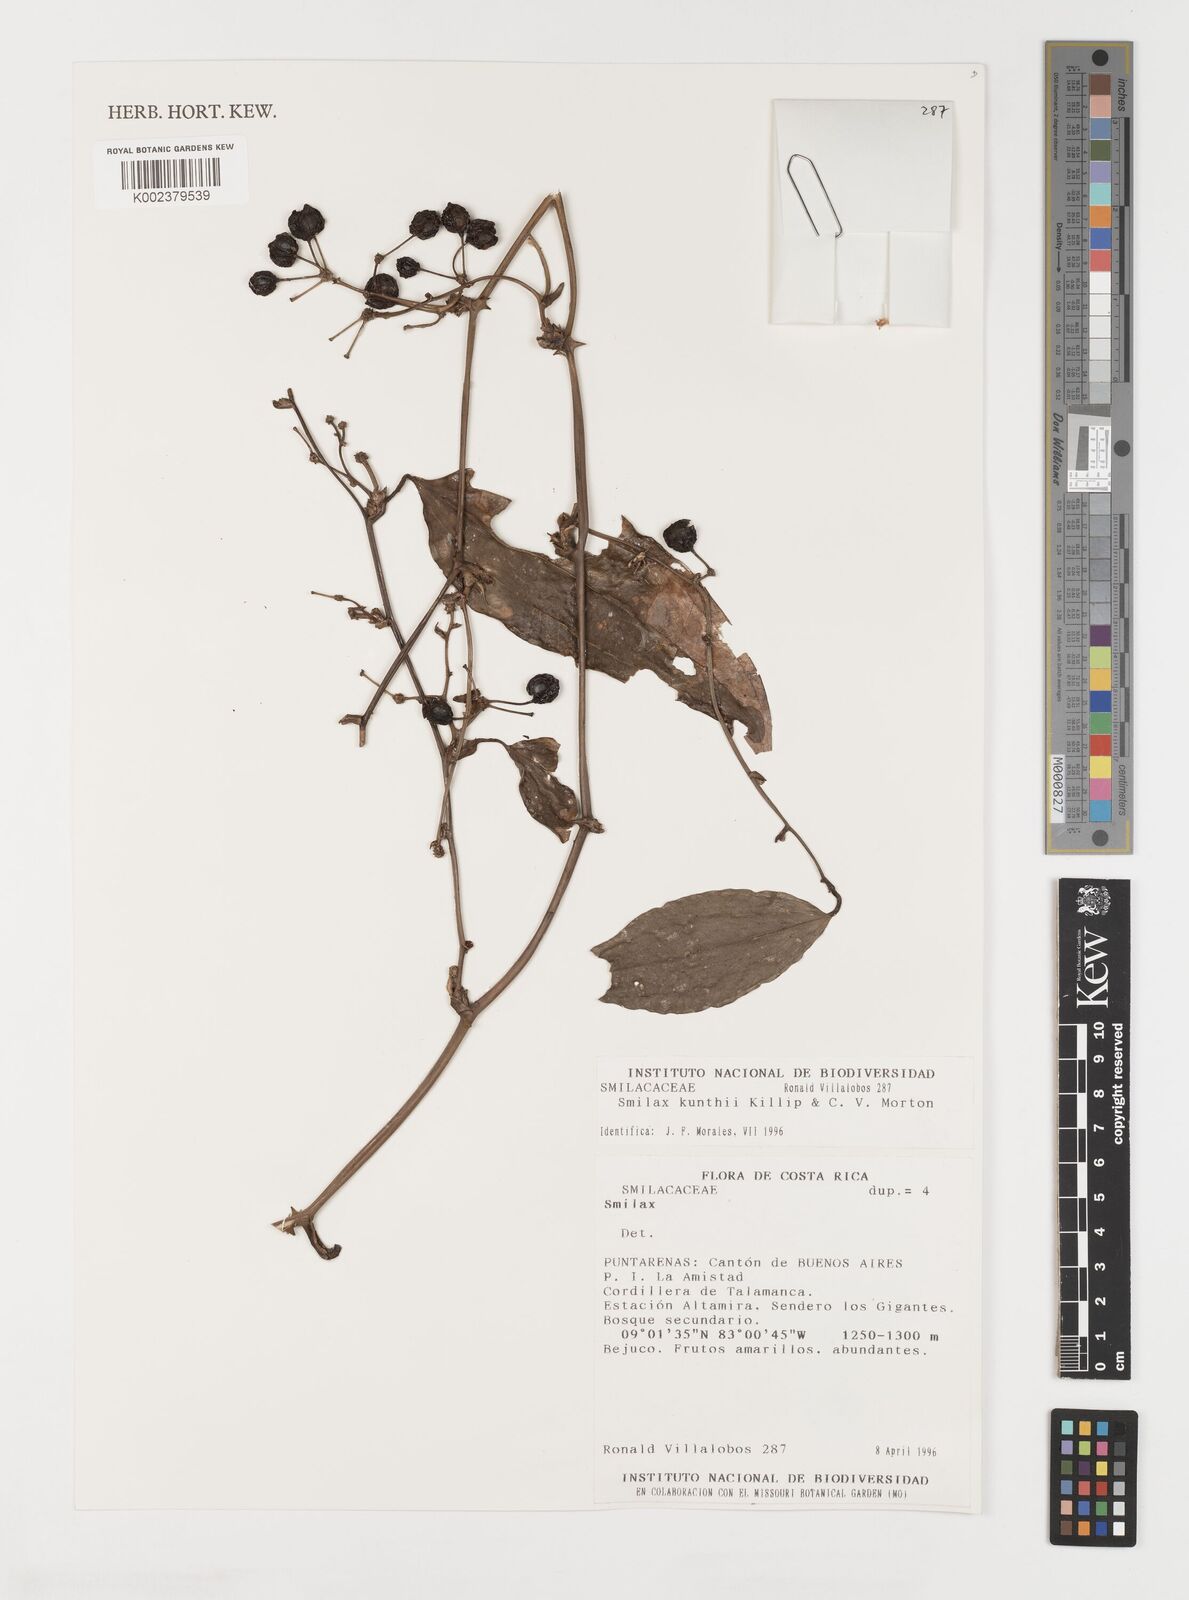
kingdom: Plantae
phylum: Tracheophyta
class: Liliopsida
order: Liliales
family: Smilacaceae
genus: Smilax
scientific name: Smilax domingensis
